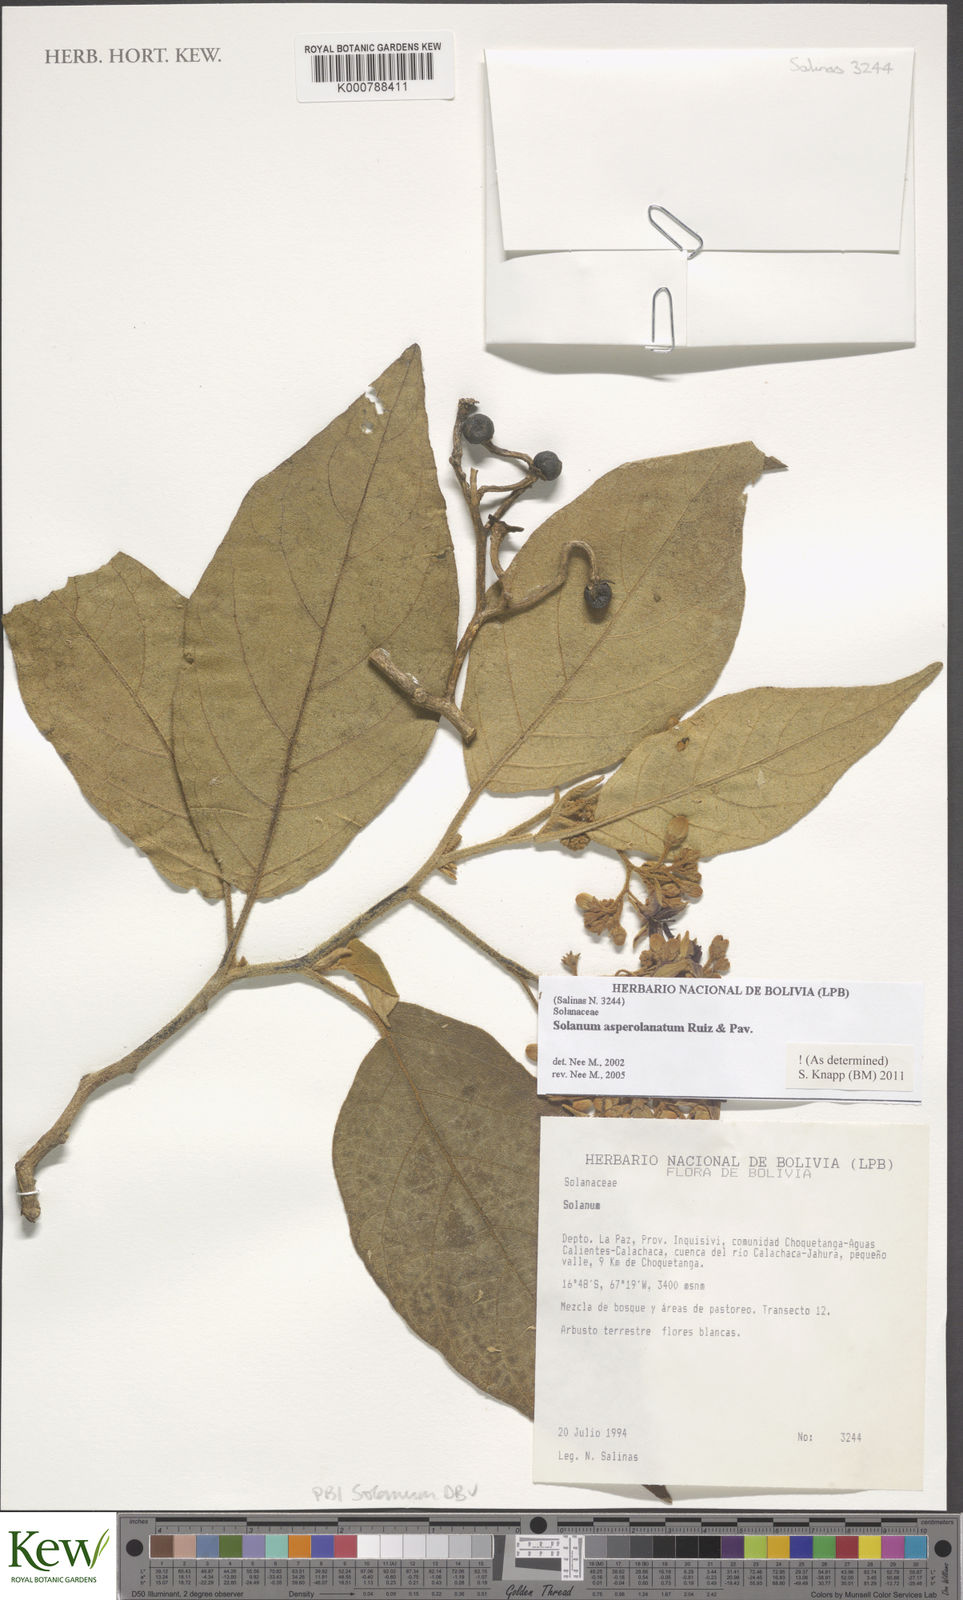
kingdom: Plantae
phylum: Tracheophyta
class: Magnoliopsida
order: Solanales
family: Solanaceae
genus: Solanum
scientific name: Solanum asperolanatum
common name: Devil's-fig
